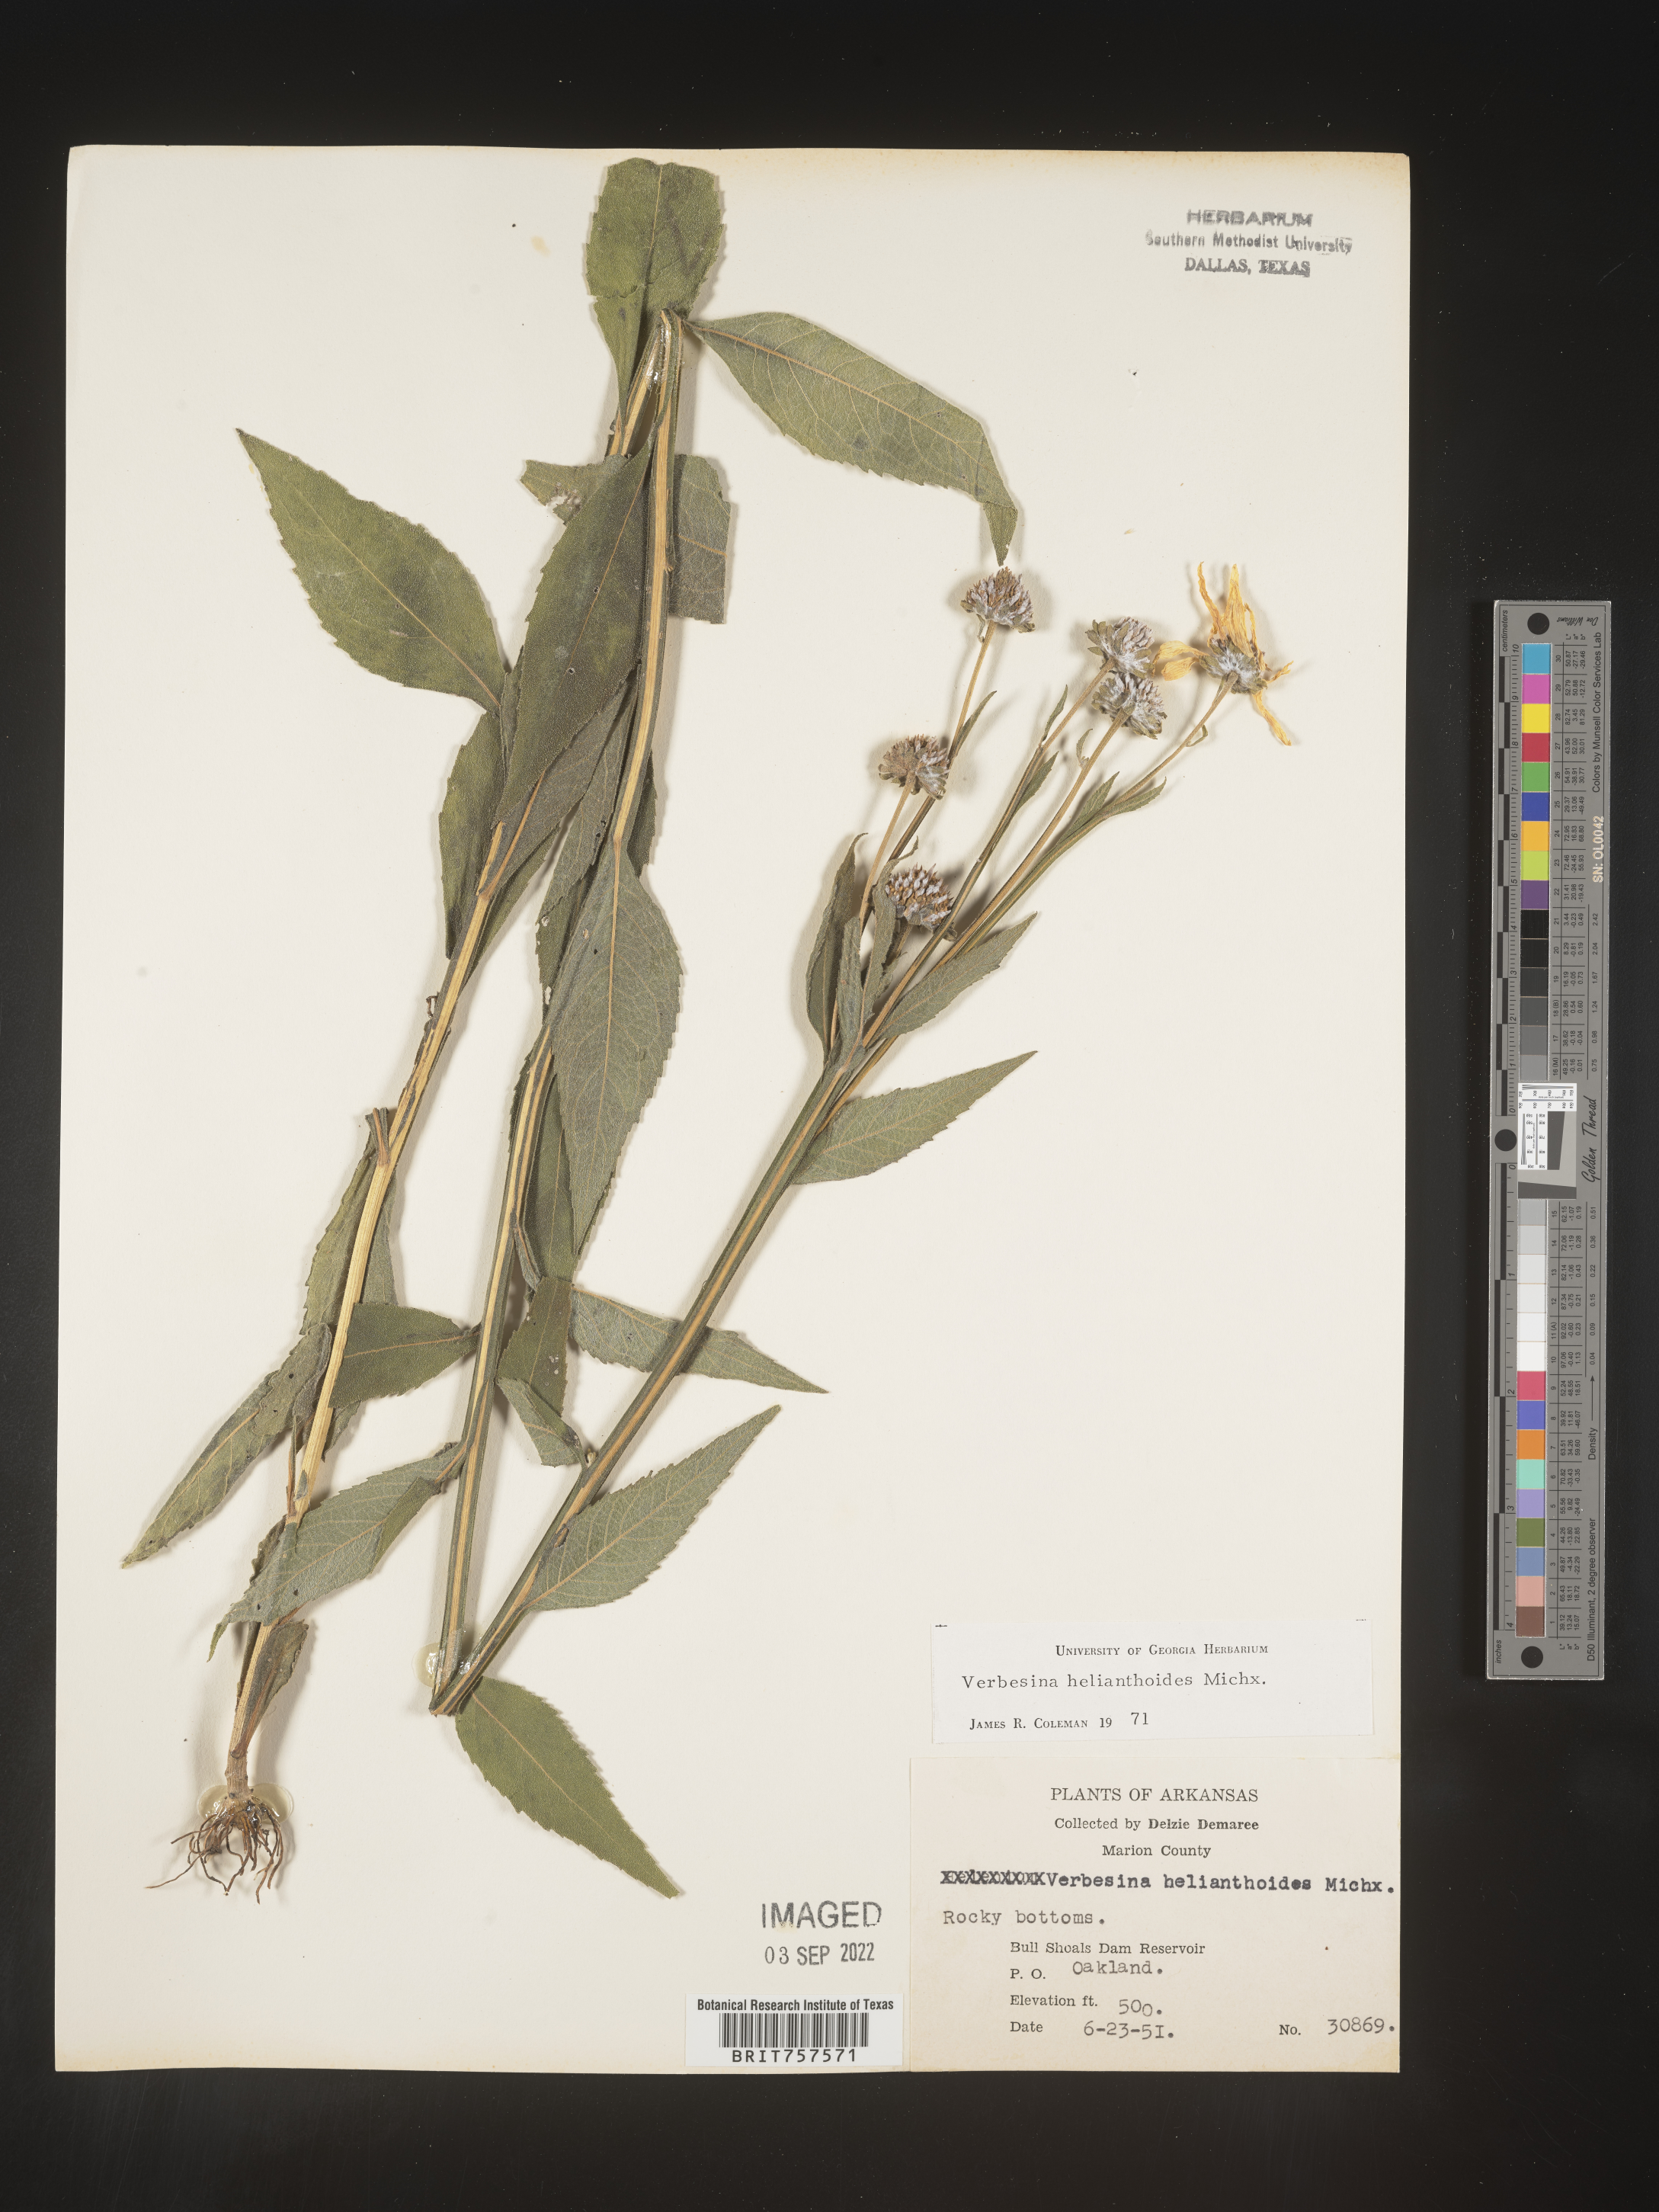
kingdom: Plantae
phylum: Tracheophyta
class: Magnoliopsida
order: Asterales
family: Asteraceae
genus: Verbesina
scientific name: Verbesina helianthoides
